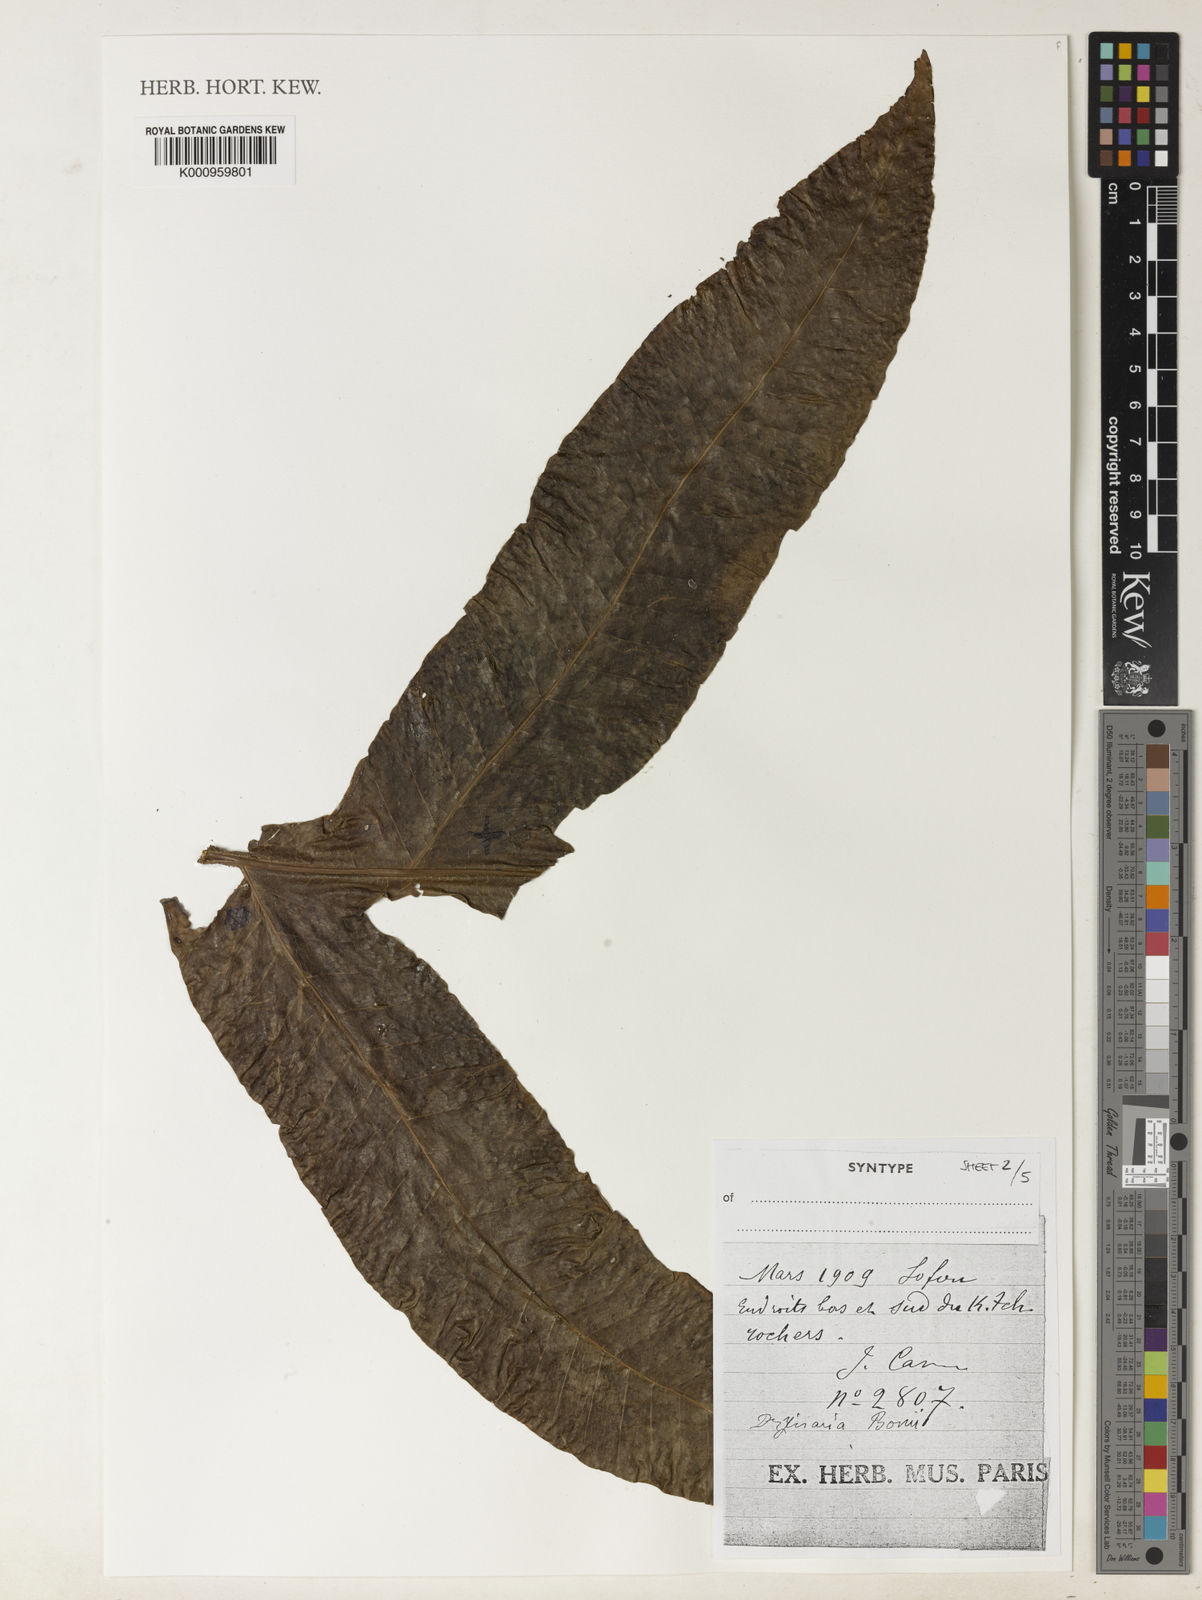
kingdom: Plantae
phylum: Tracheophyta
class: Polypodiopsida
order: Polypodiales
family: Polypodiaceae
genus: Drynaria
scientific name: Drynaria bonii
